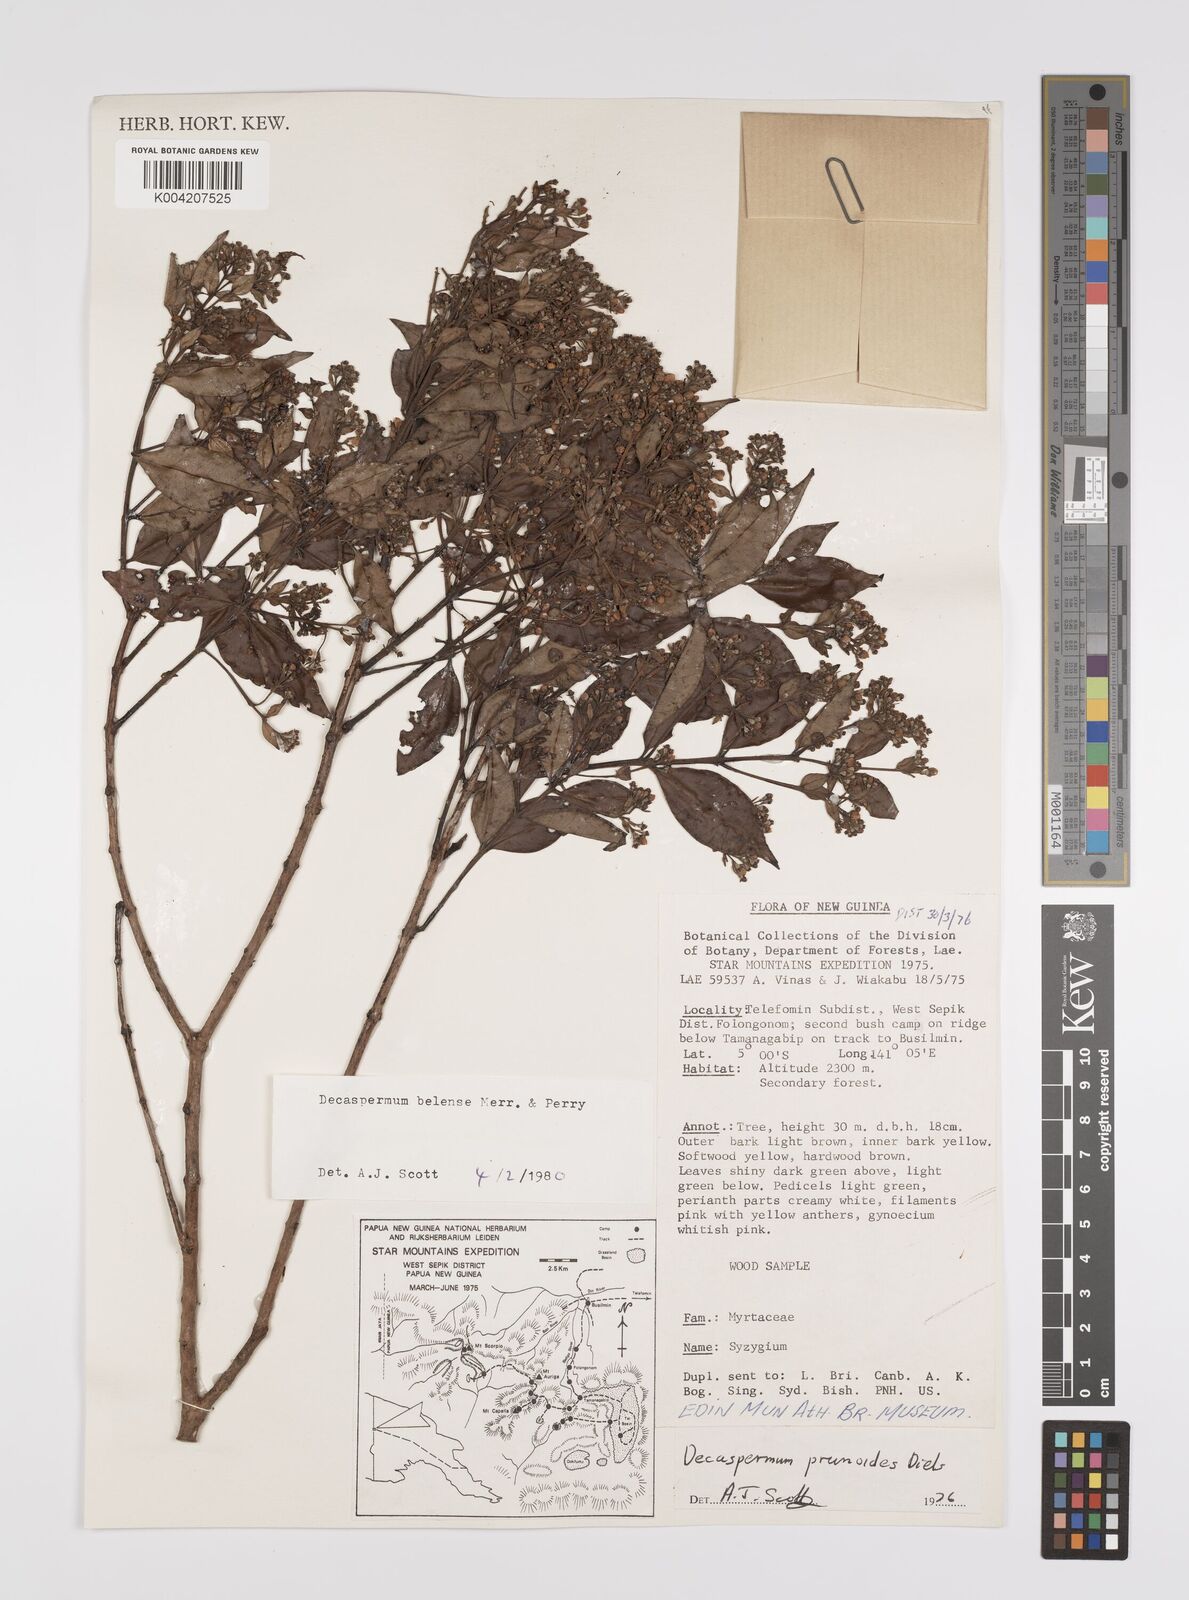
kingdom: Plantae
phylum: Tracheophyta
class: Magnoliopsida
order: Myrtales
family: Myrtaceae
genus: Decaspermum
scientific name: Decaspermum belense
